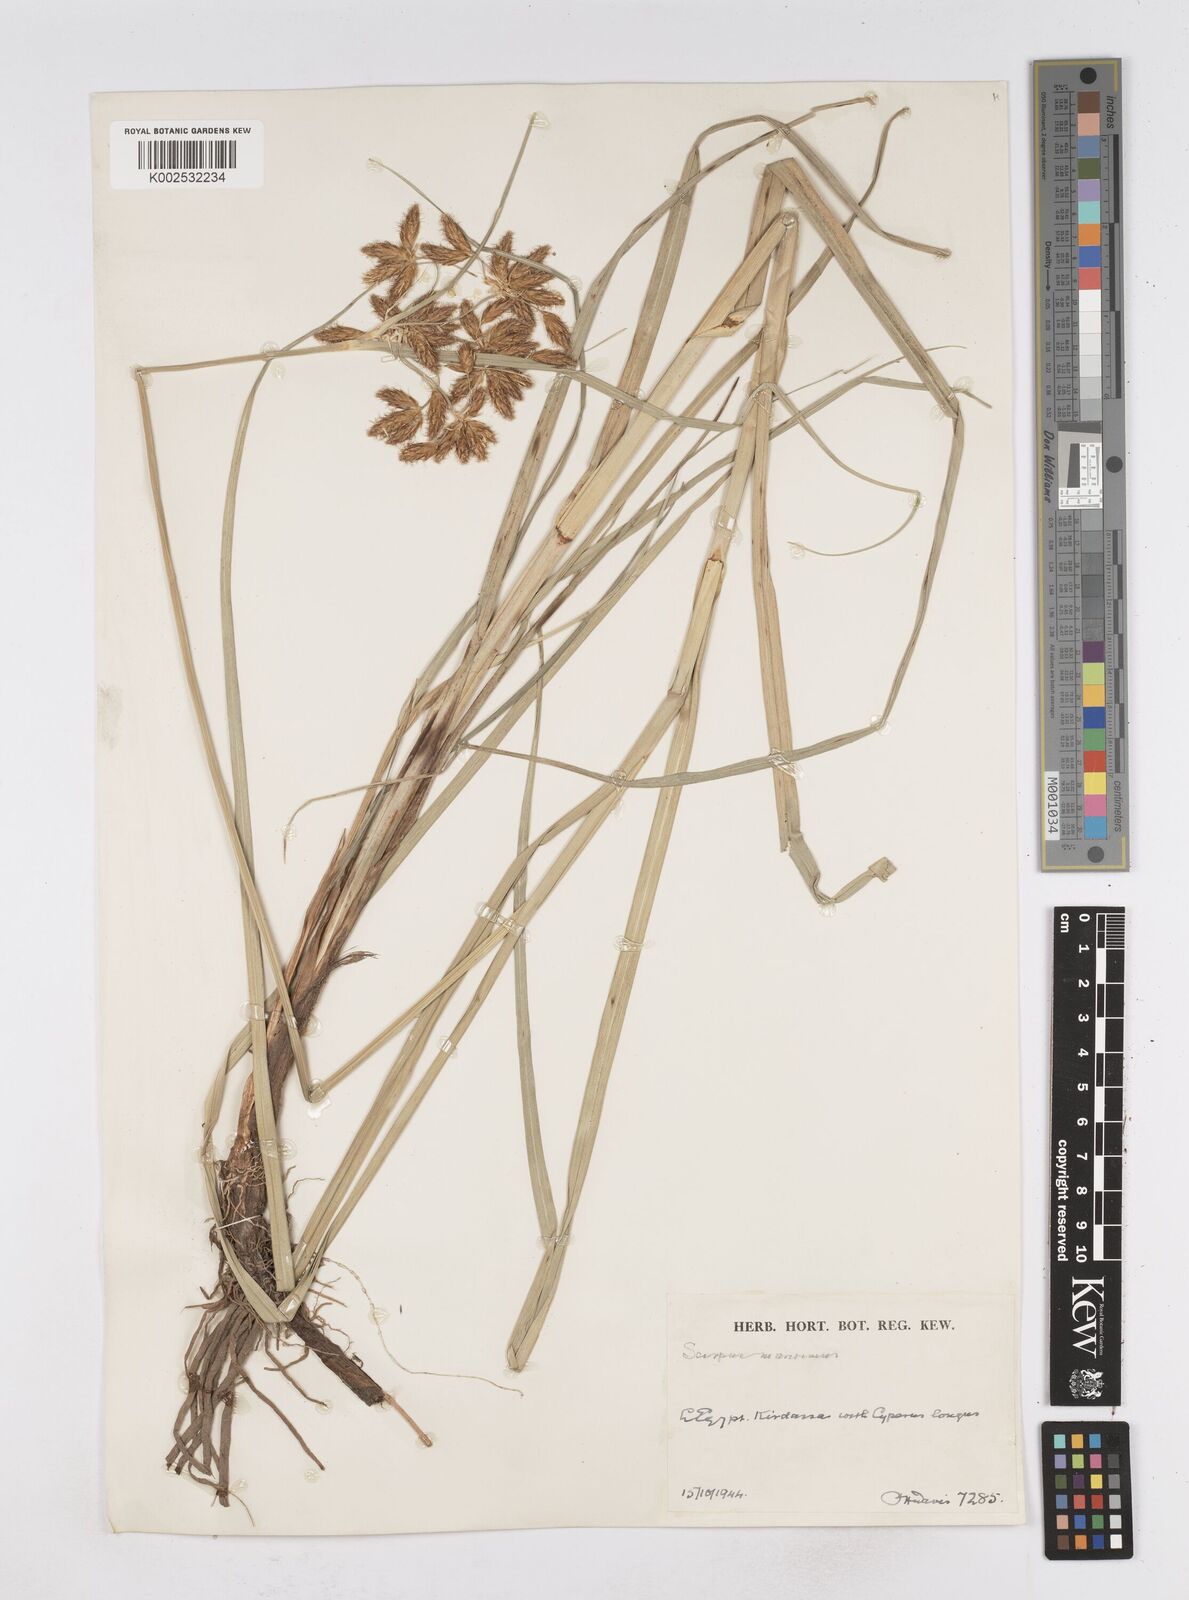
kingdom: Plantae
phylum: Tracheophyta
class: Liliopsida
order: Poales
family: Cyperaceae
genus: Bolboschoenus
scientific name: Bolboschoenus maritimus
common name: Sea club-rush
